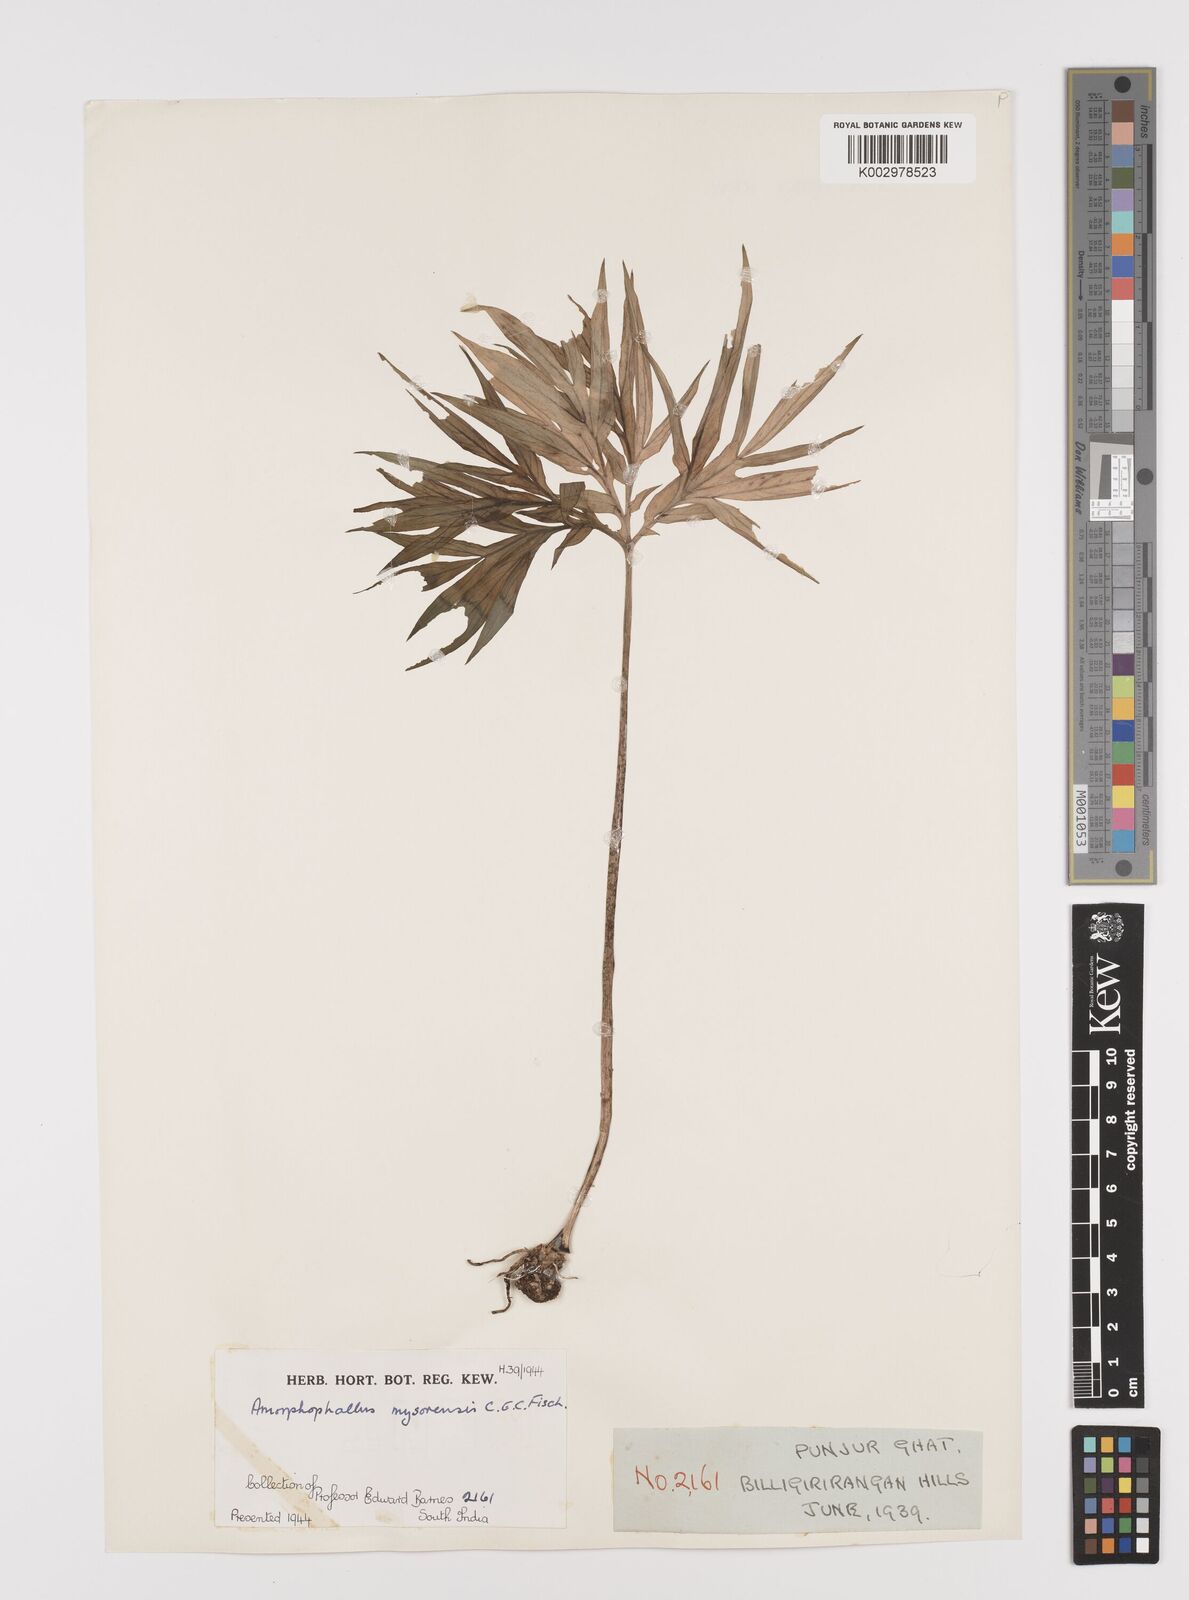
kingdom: Plantae
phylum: Tracheophyta
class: Liliopsida
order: Alismatales
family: Araceae
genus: Amorphophallus
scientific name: Amorphophallus mysorensis
